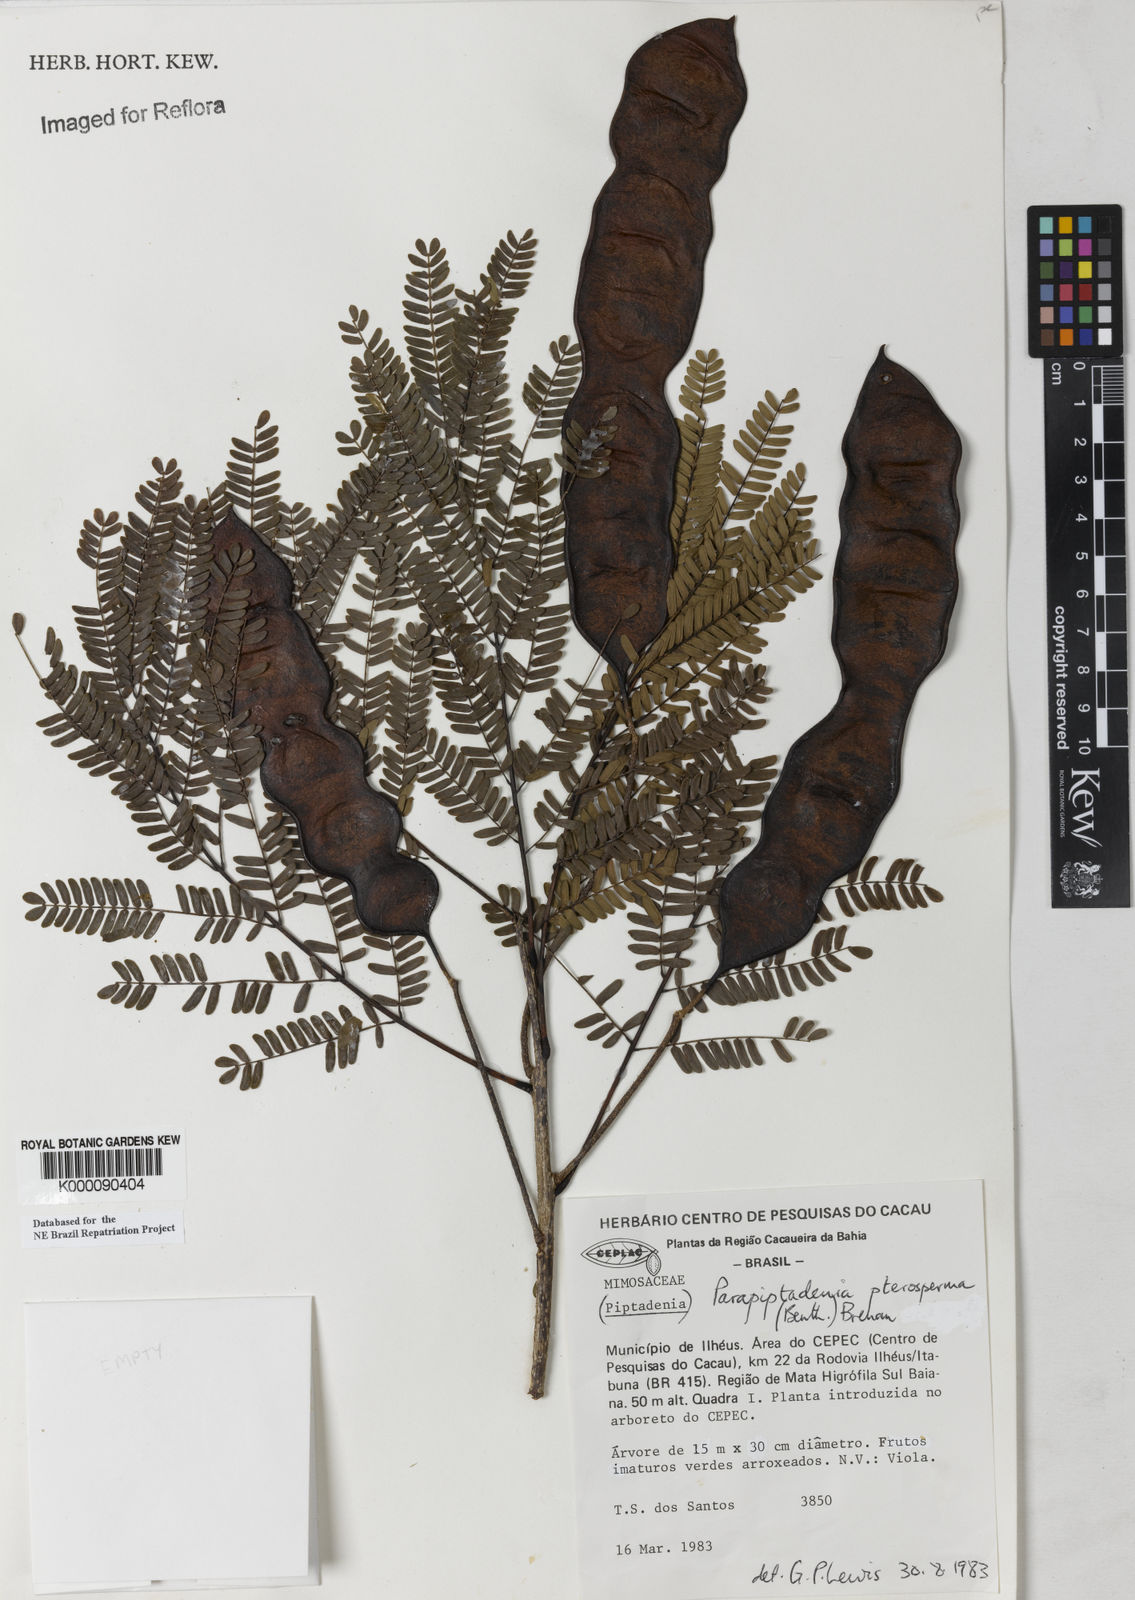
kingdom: Plantae
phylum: Tracheophyta
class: Magnoliopsida
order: Fabales
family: Fabaceae
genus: Parapiptadenia
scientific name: Parapiptadenia pterosperma
